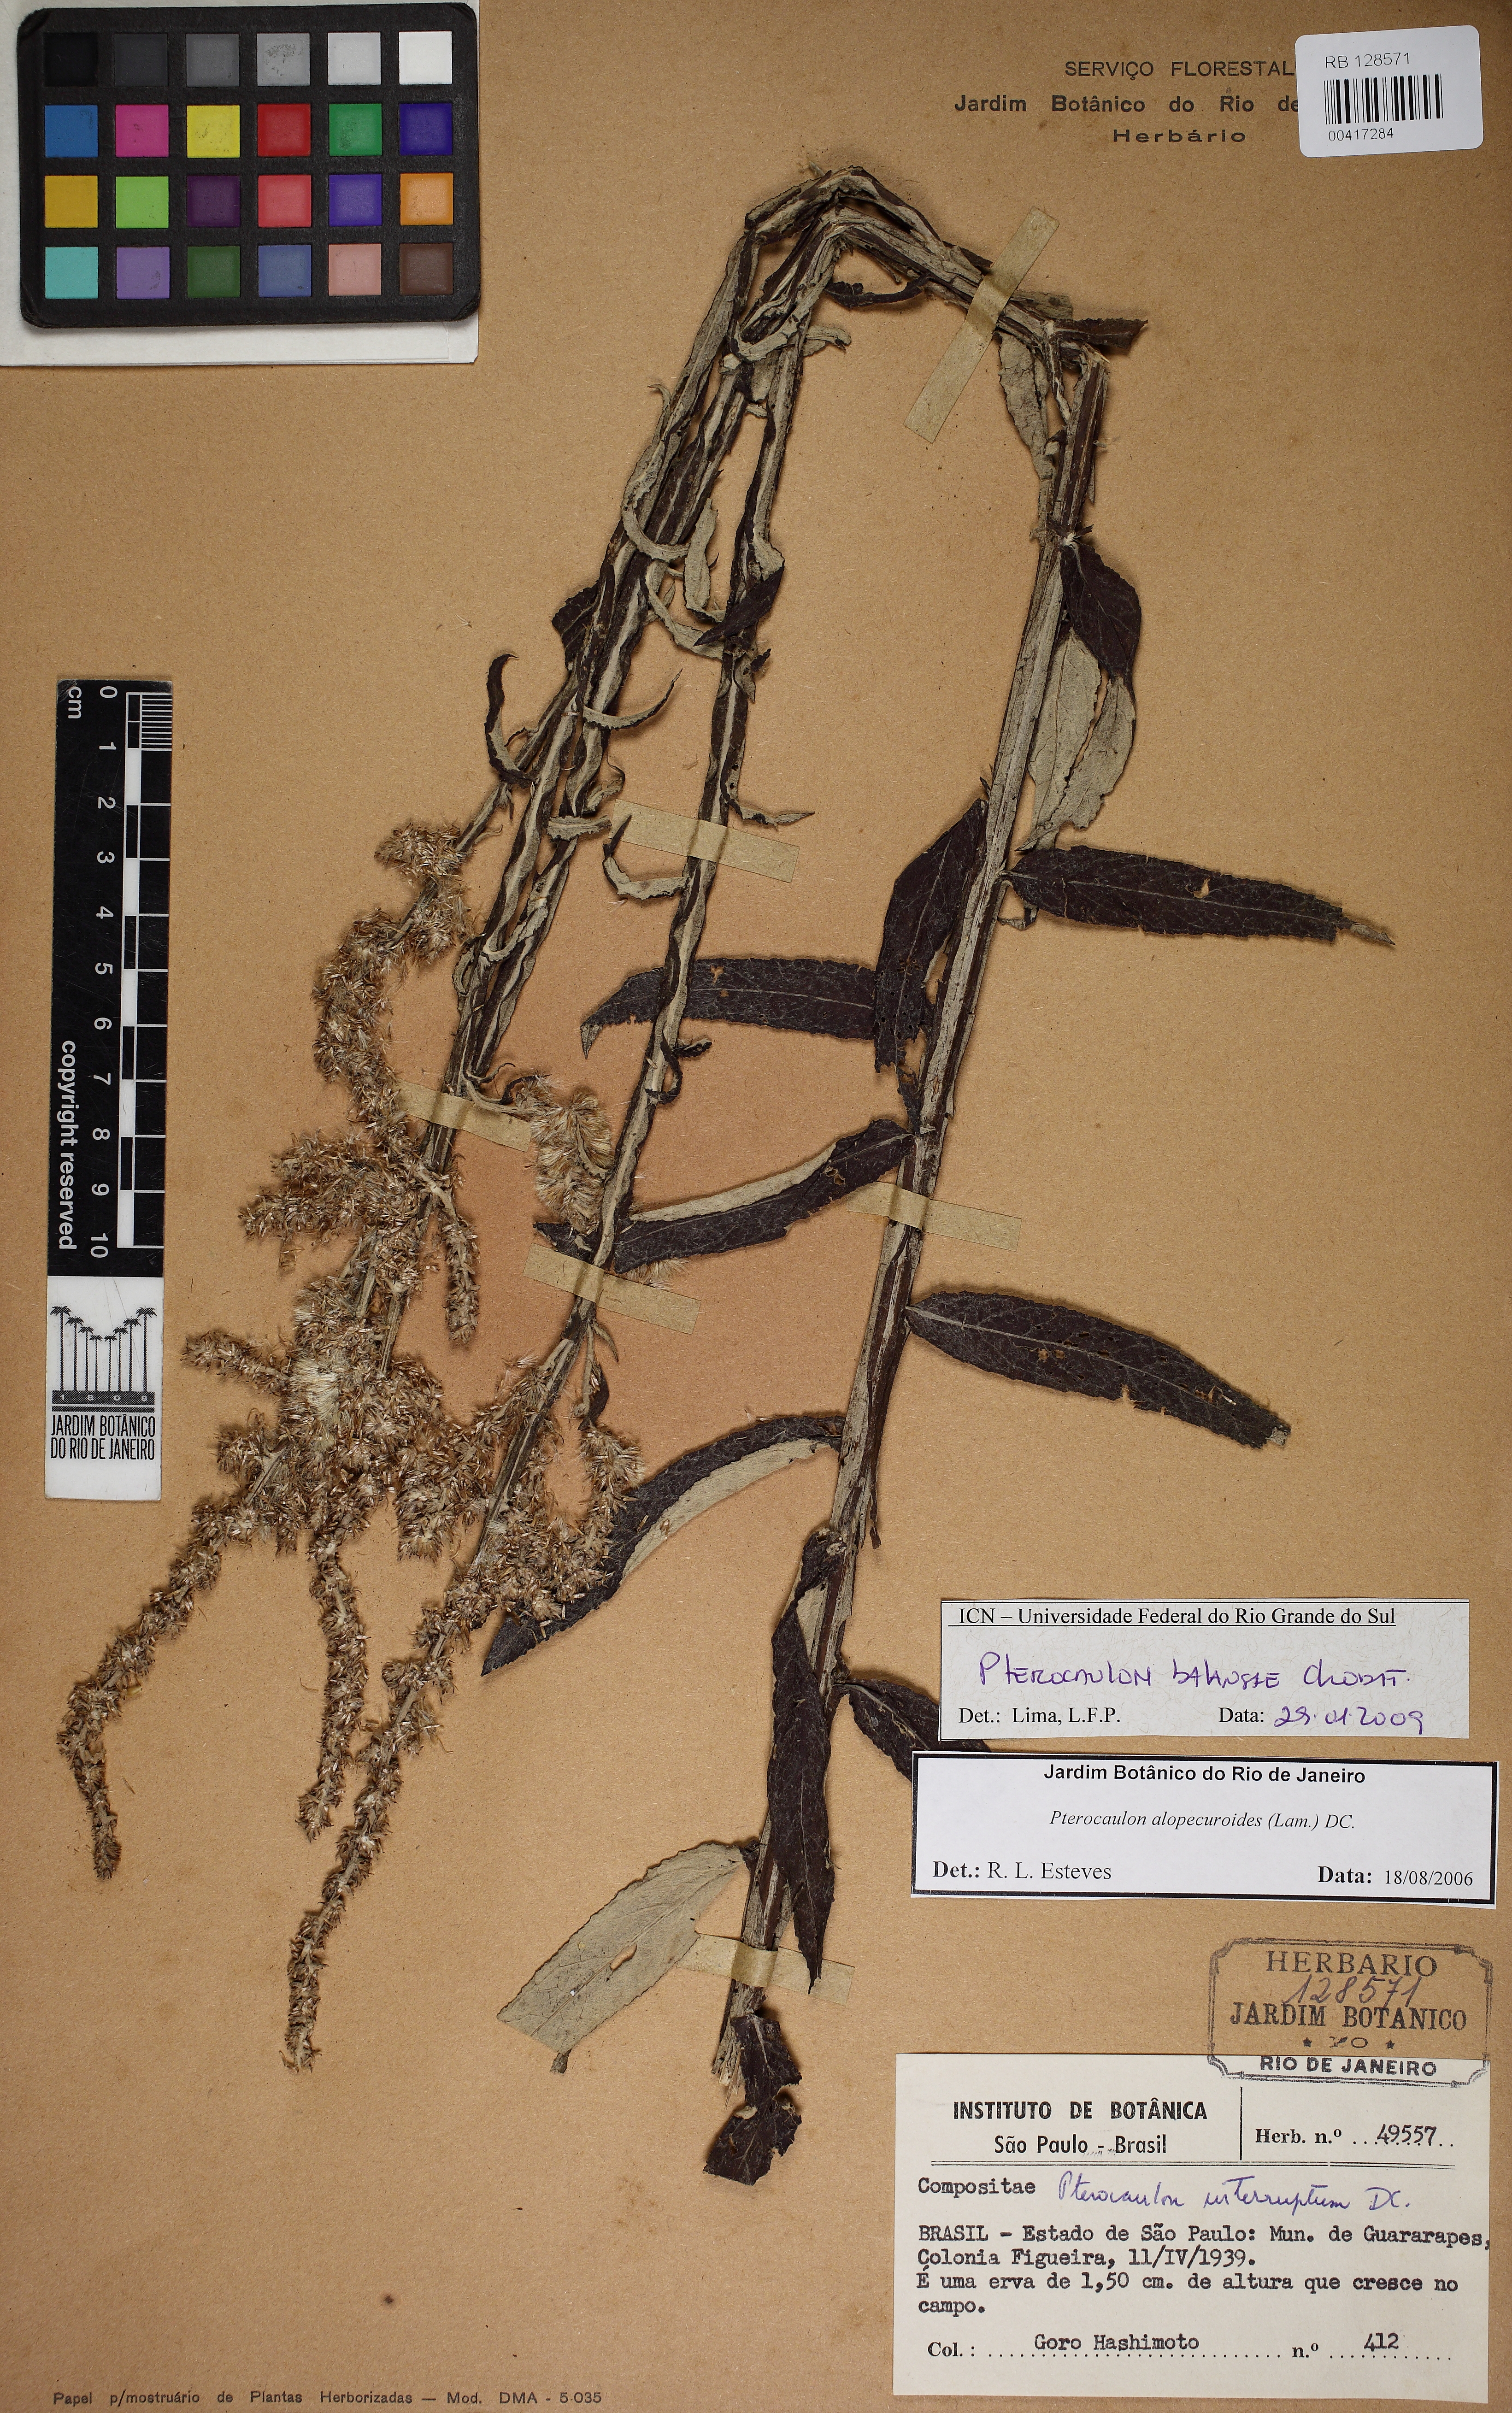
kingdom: Plantae
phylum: Tracheophyta
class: Magnoliopsida
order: Asterales
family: Asteraceae
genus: Pterocaulon
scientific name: Pterocaulon balansae
